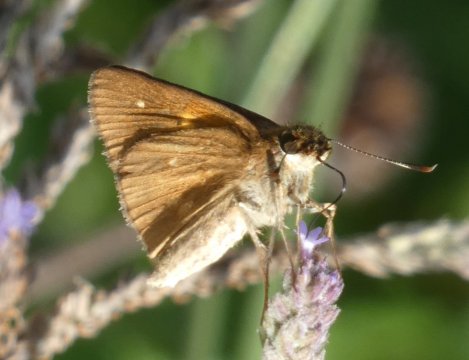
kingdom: Animalia
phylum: Arthropoda
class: Insecta
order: Lepidoptera
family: Hesperiidae
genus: Poanes
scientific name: Poanes viator
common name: Broad-winged Skipper
